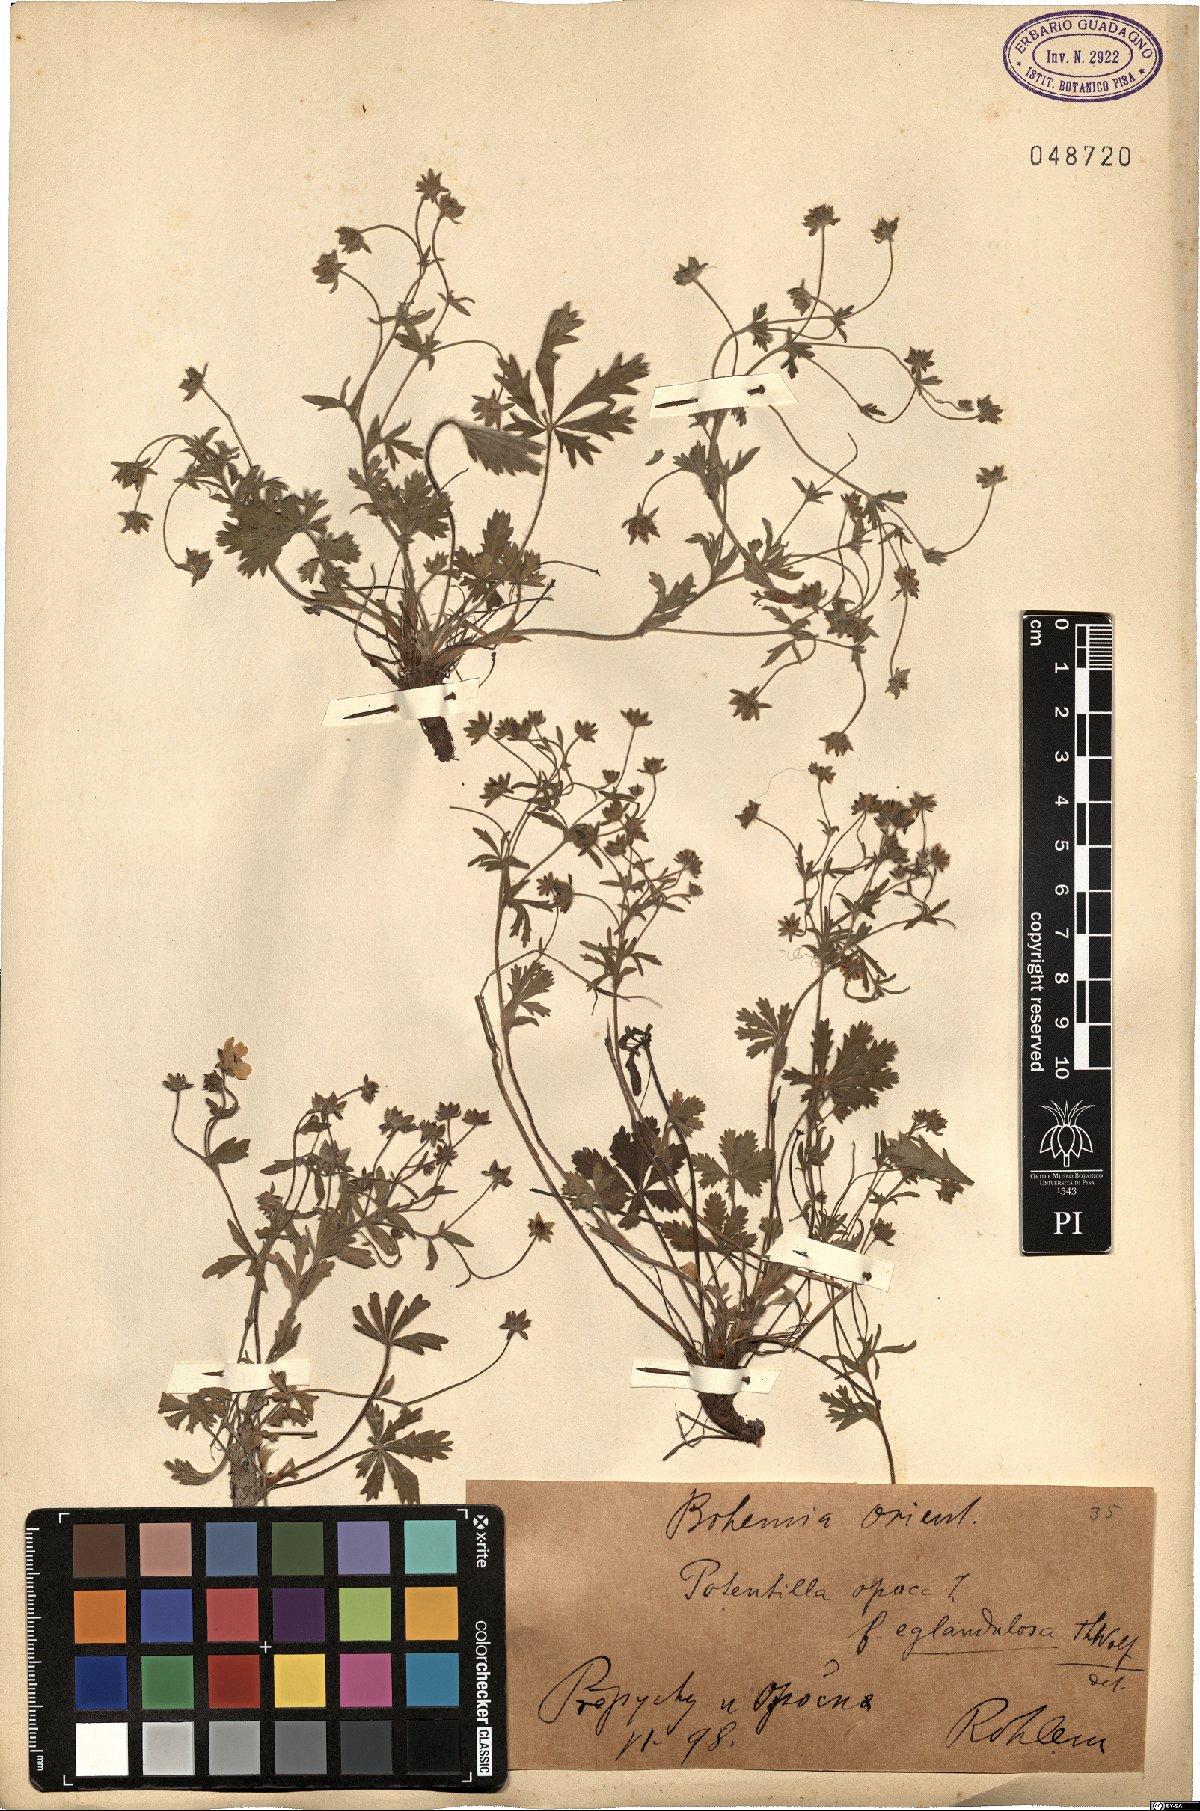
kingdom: Plantae
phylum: Tracheophyta
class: Magnoliopsida
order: Rosales
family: Rosaceae
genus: Potentilla
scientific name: Potentilla heptaphylla
